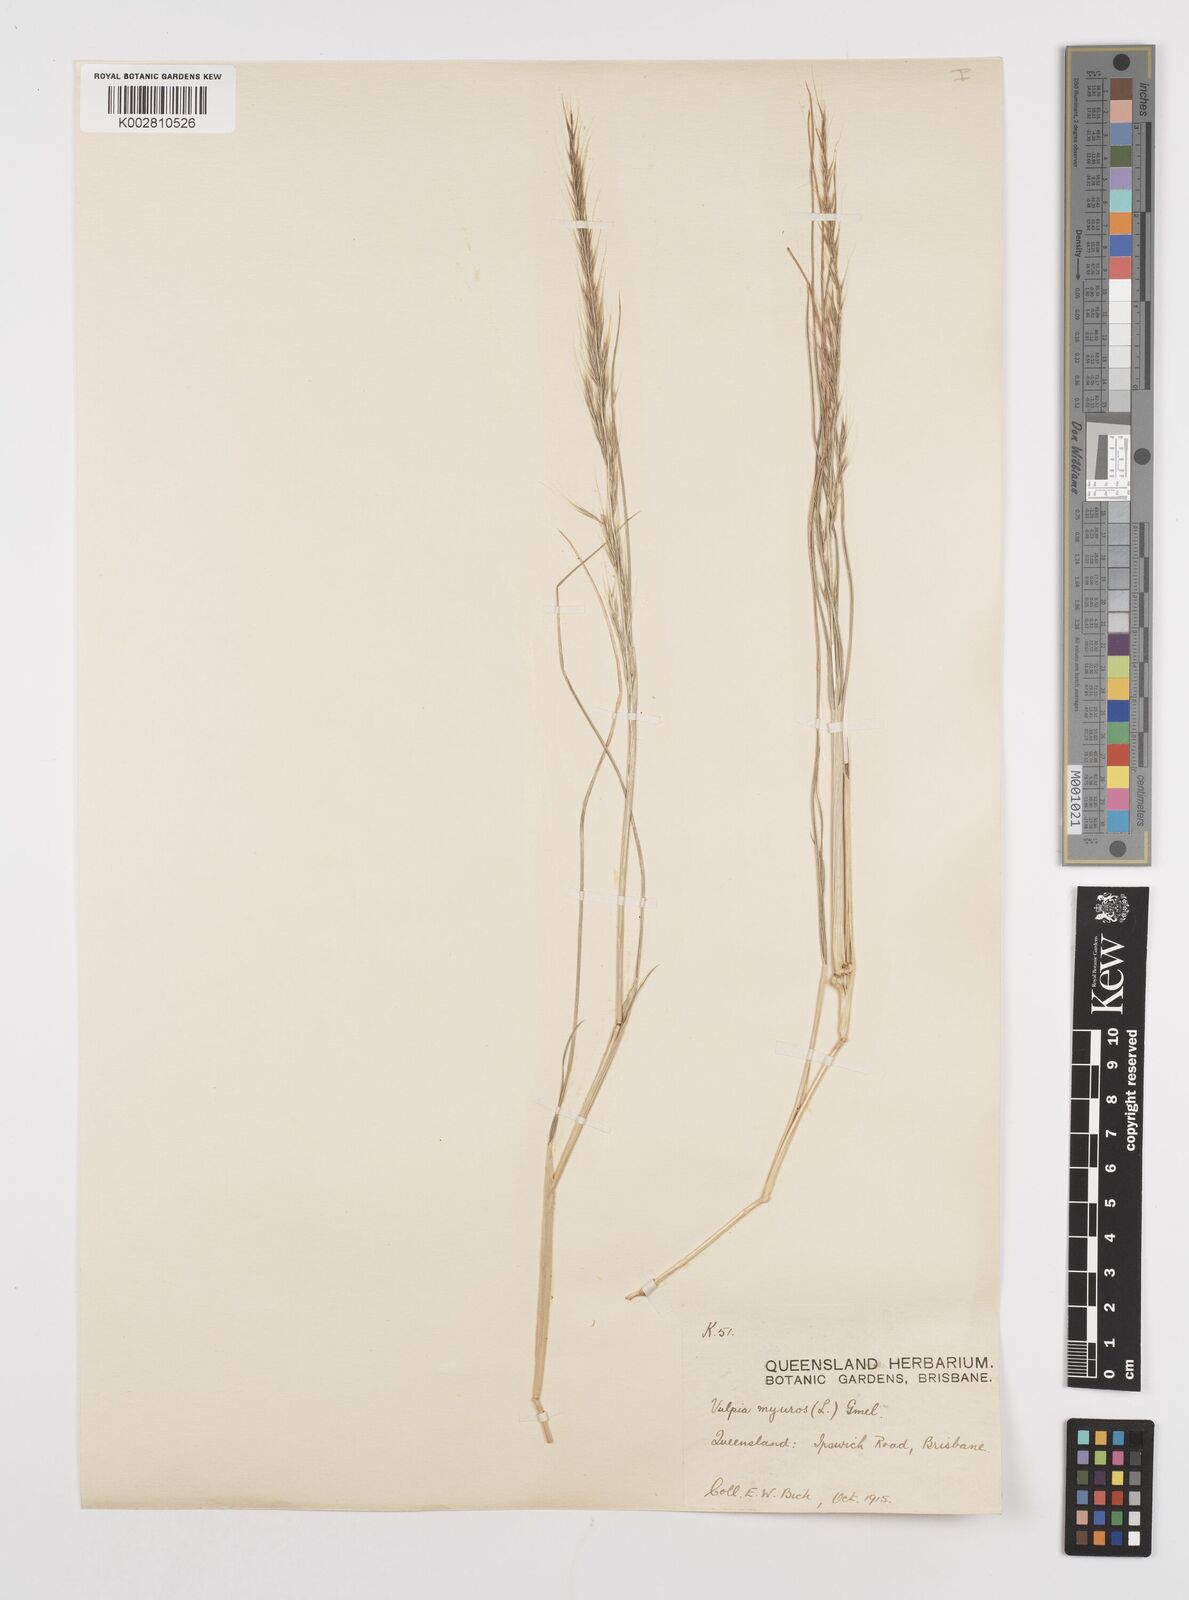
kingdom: Plantae
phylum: Tracheophyta
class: Liliopsida
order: Poales
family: Poaceae
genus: Festuca
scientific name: Festuca myuros
